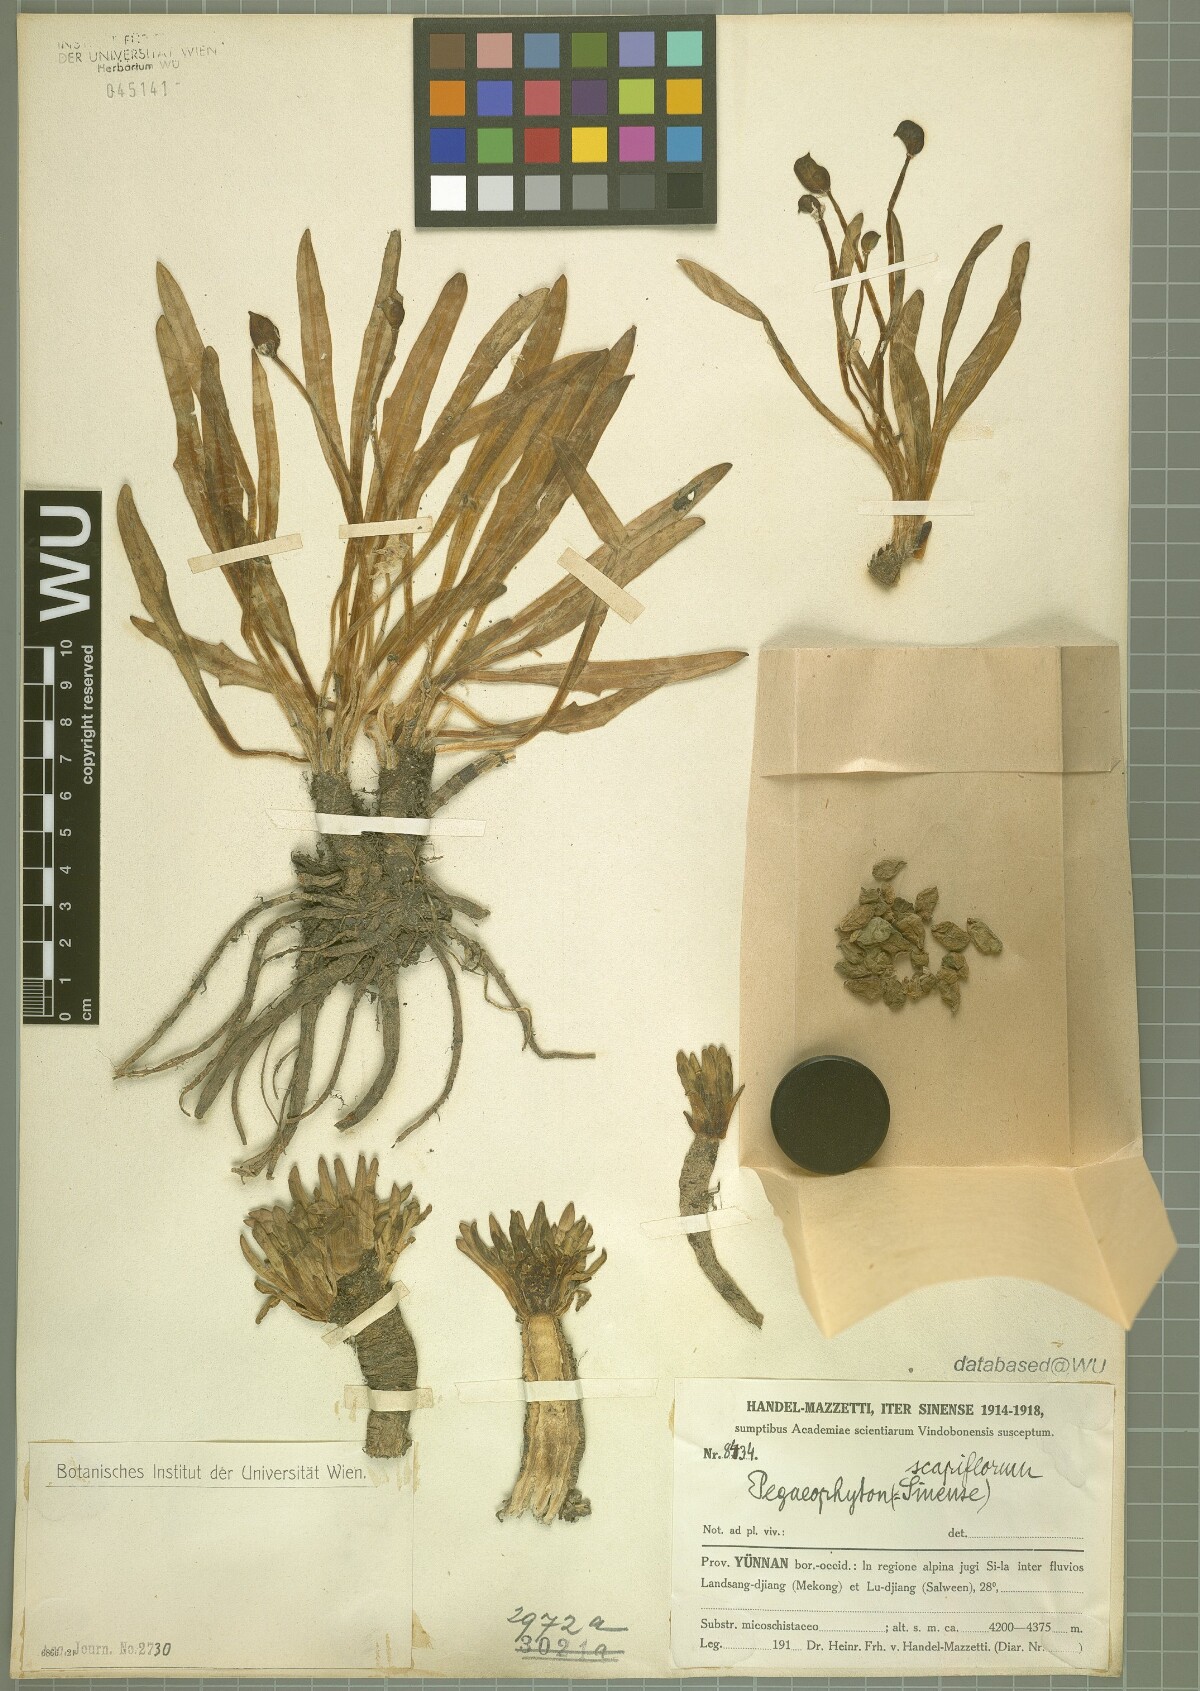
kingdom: Plantae
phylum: Tracheophyta
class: Magnoliopsida
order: Brassicales
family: Brassicaceae
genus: Eutrema
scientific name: Eutrema scapiflorum
